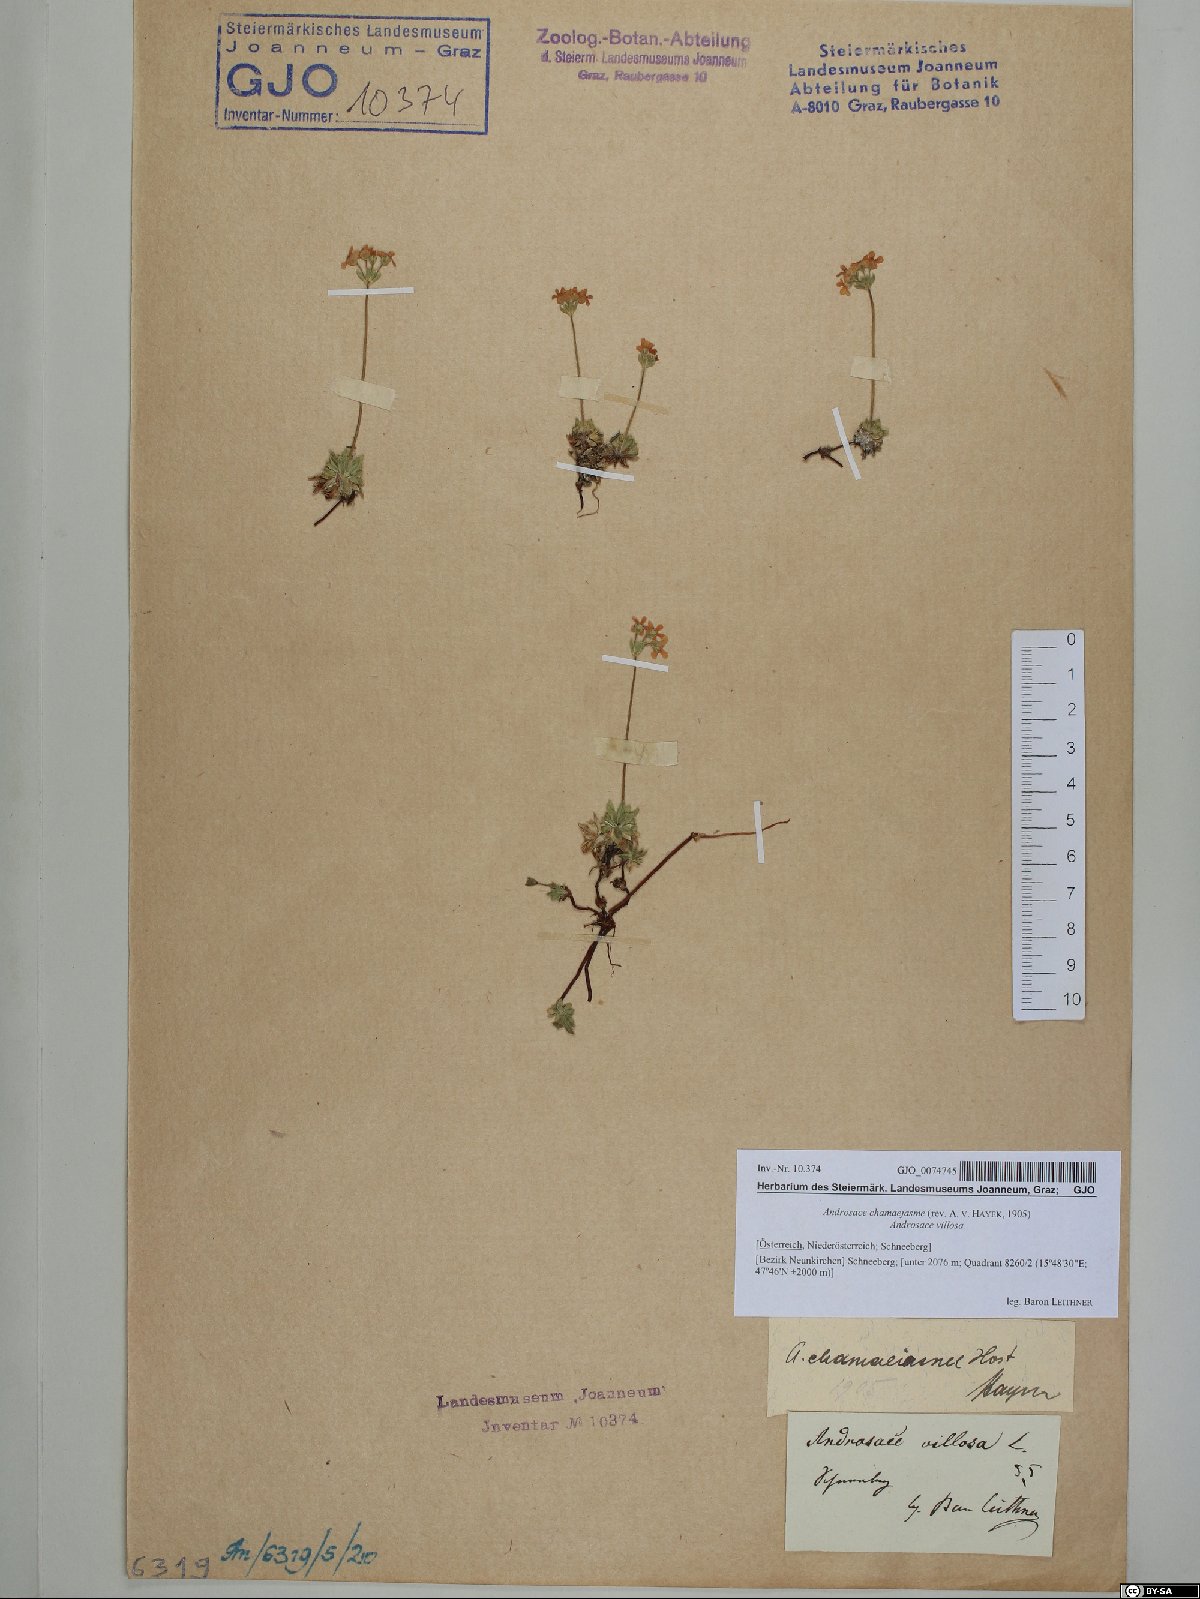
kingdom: Plantae
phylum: Tracheophyta
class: Magnoliopsida
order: Ericales
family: Primulaceae
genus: Androsace
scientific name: Androsace chamaejasme
